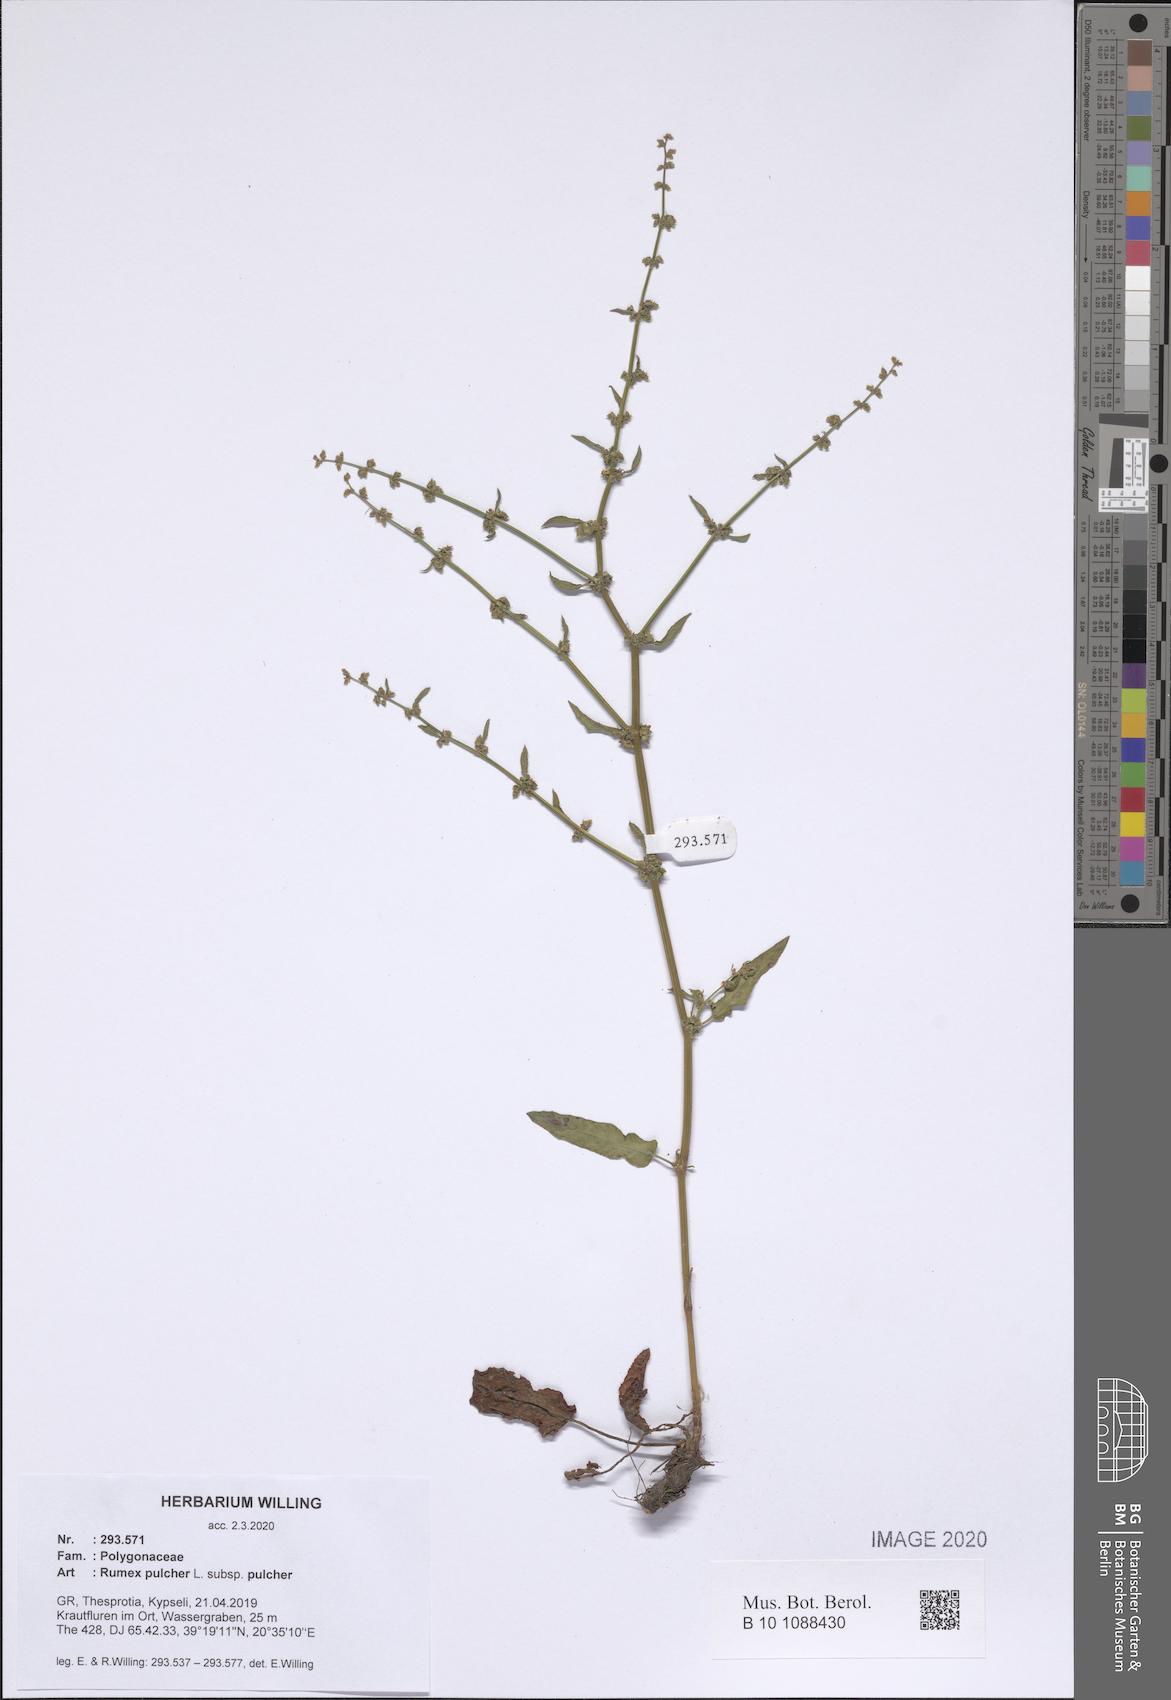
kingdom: Plantae
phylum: Tracheophyta
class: Magnoliopsida
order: Caryophyllales
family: Polygonaceae
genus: Rumex
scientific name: Rumex pulcher
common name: Fiddle dock
